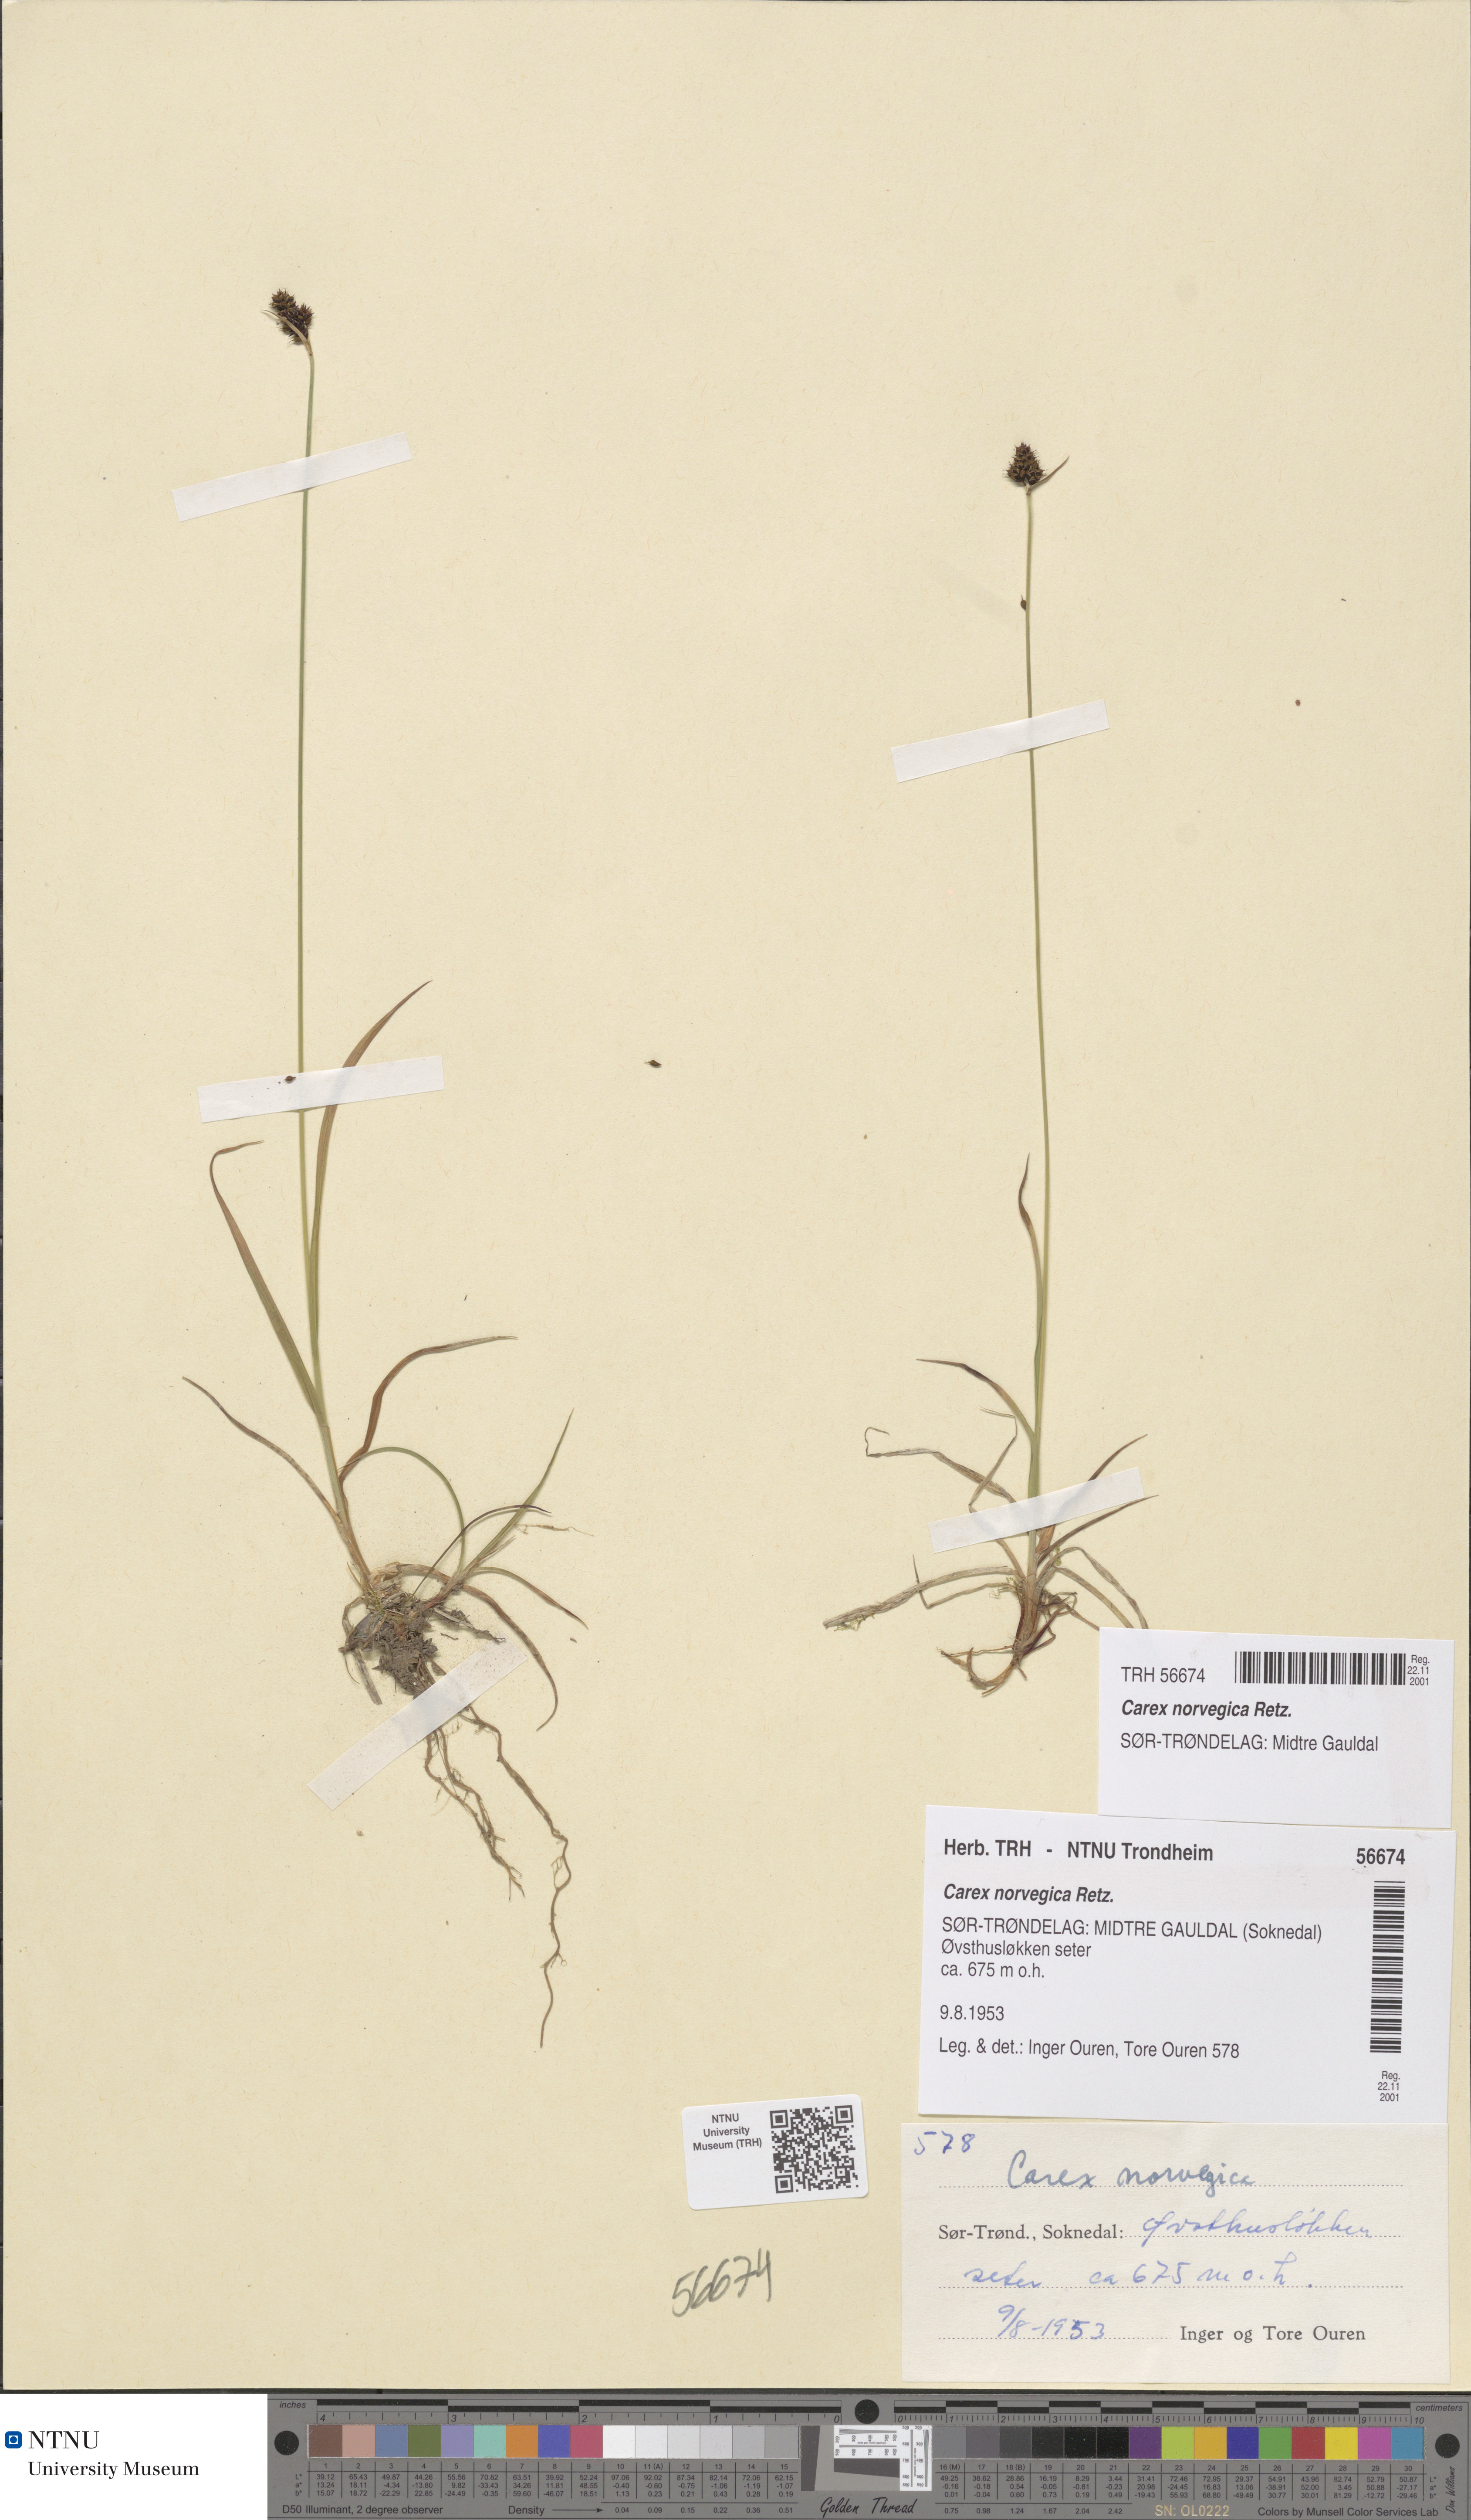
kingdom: Plantae
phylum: Tracheophyta
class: Liliopsida
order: Poales
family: Cyperaceae
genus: Carex
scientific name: Carex norvegica
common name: Close-headed alpine-sedge
